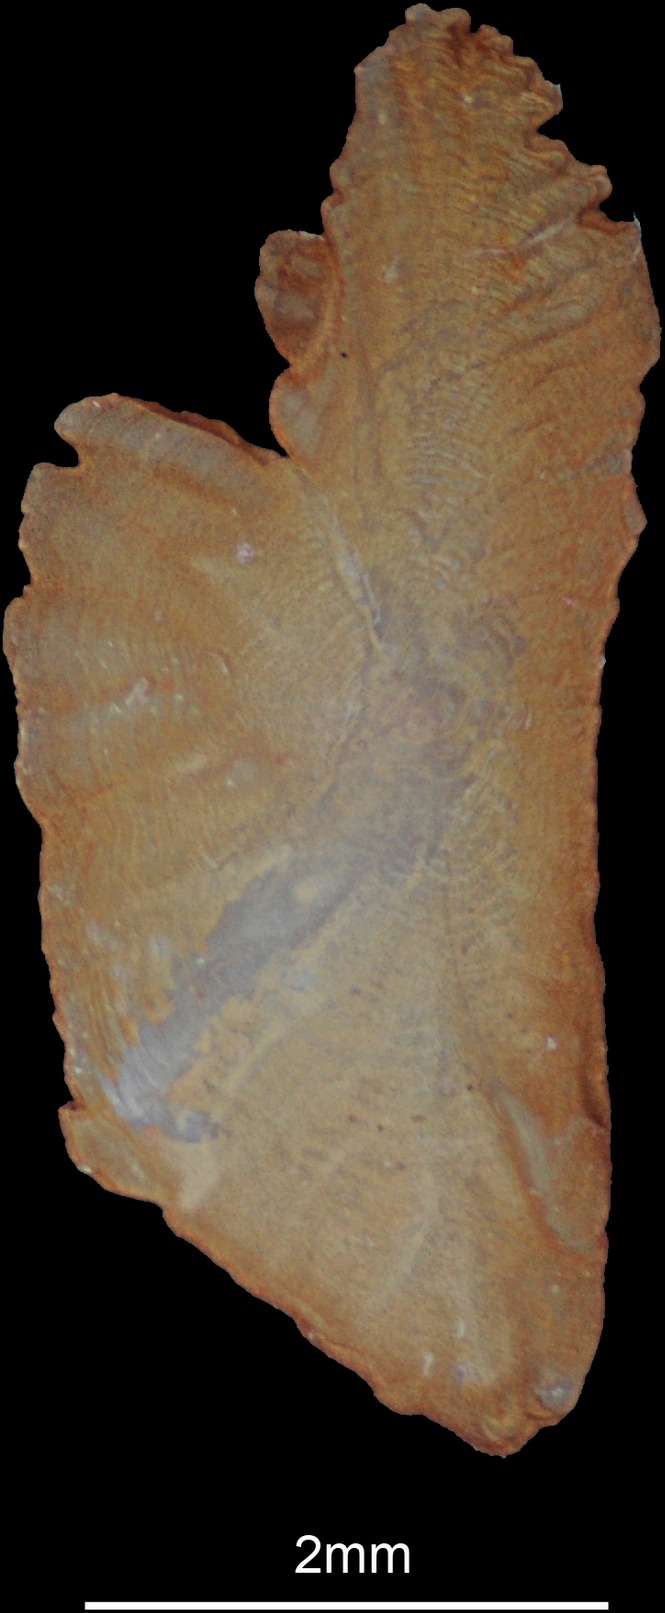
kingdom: Animalia
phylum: Chordata
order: Perciformes
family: Leiognathidae
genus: Aurigequula
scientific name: Aurigequula fasciata
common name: Striped ponyfish
